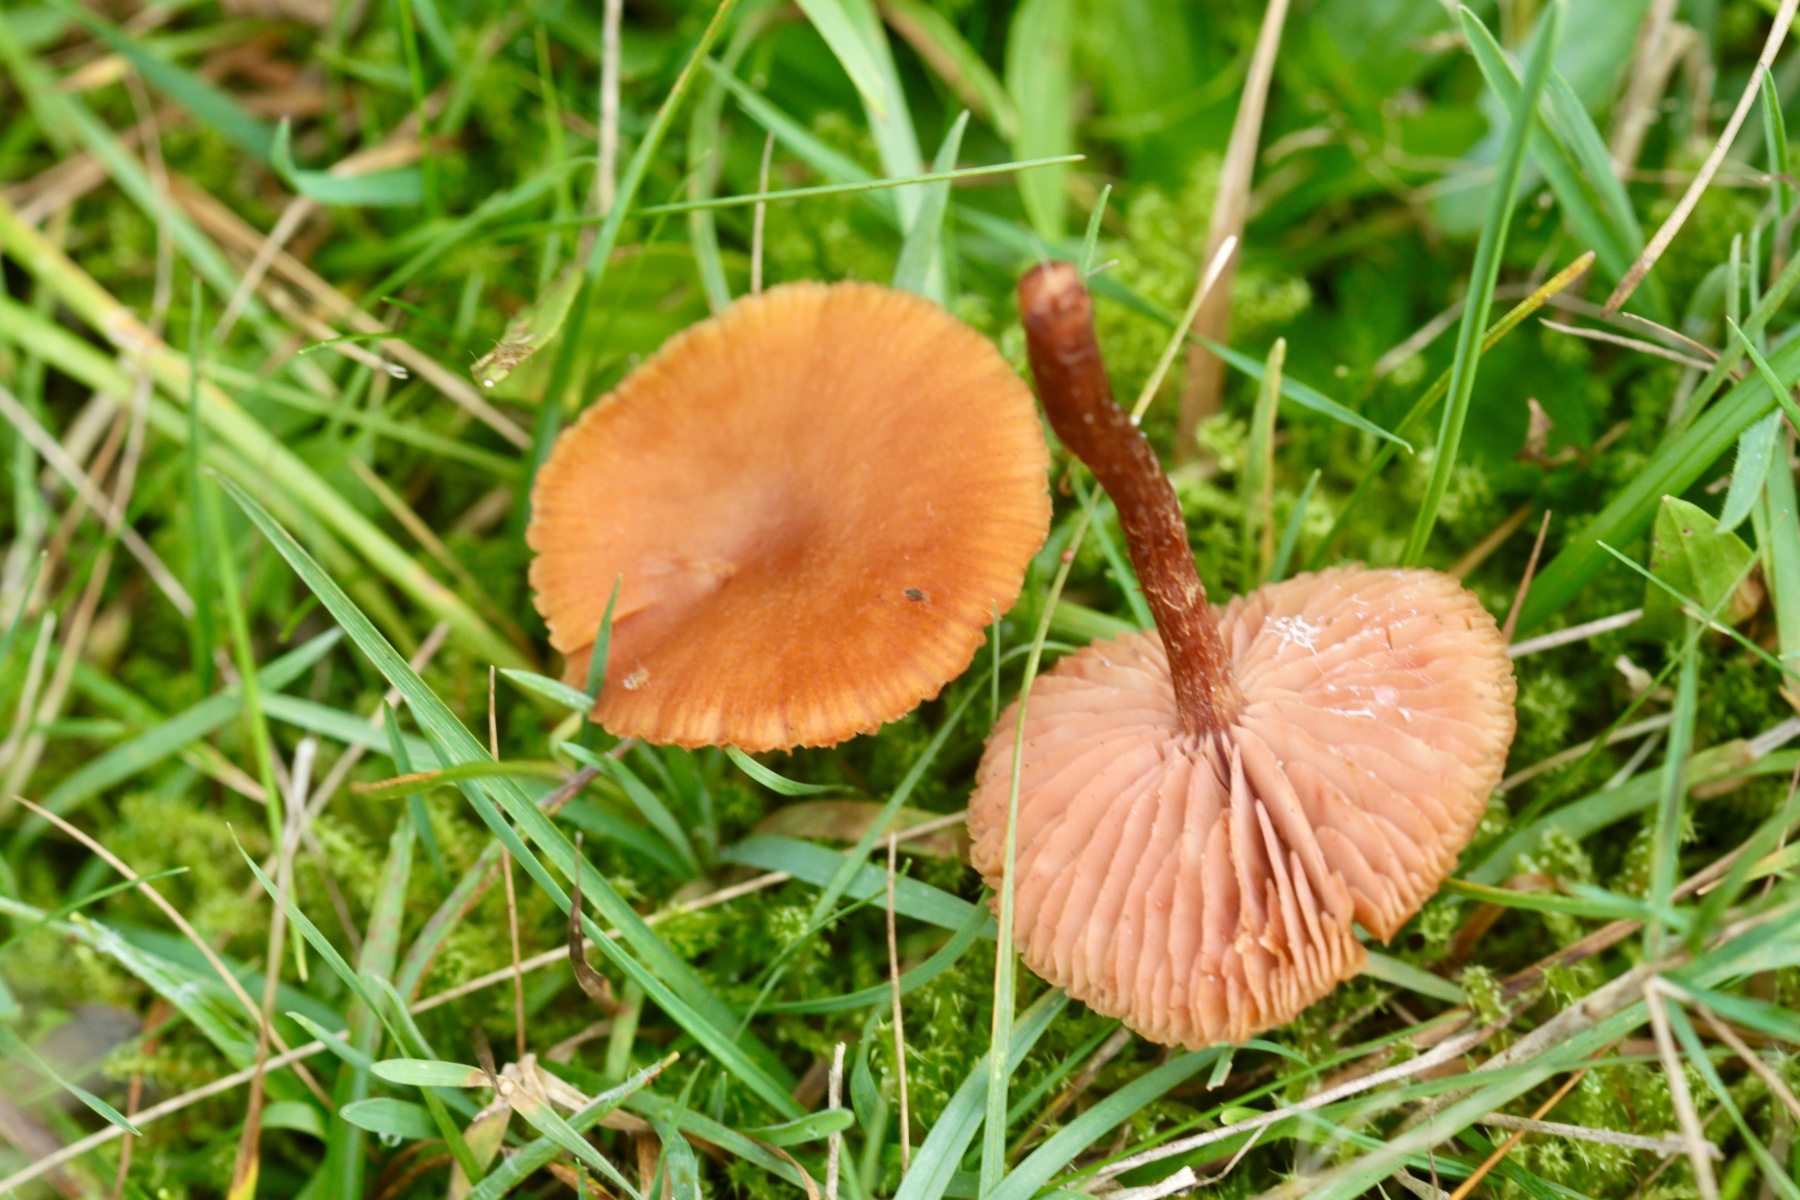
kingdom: Fungi
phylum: Basidiomycota
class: Agaricomycetes
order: Agaricales
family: Hydnangiaceae
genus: Laccaria
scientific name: Laccaria proxima
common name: stor ametysthat
